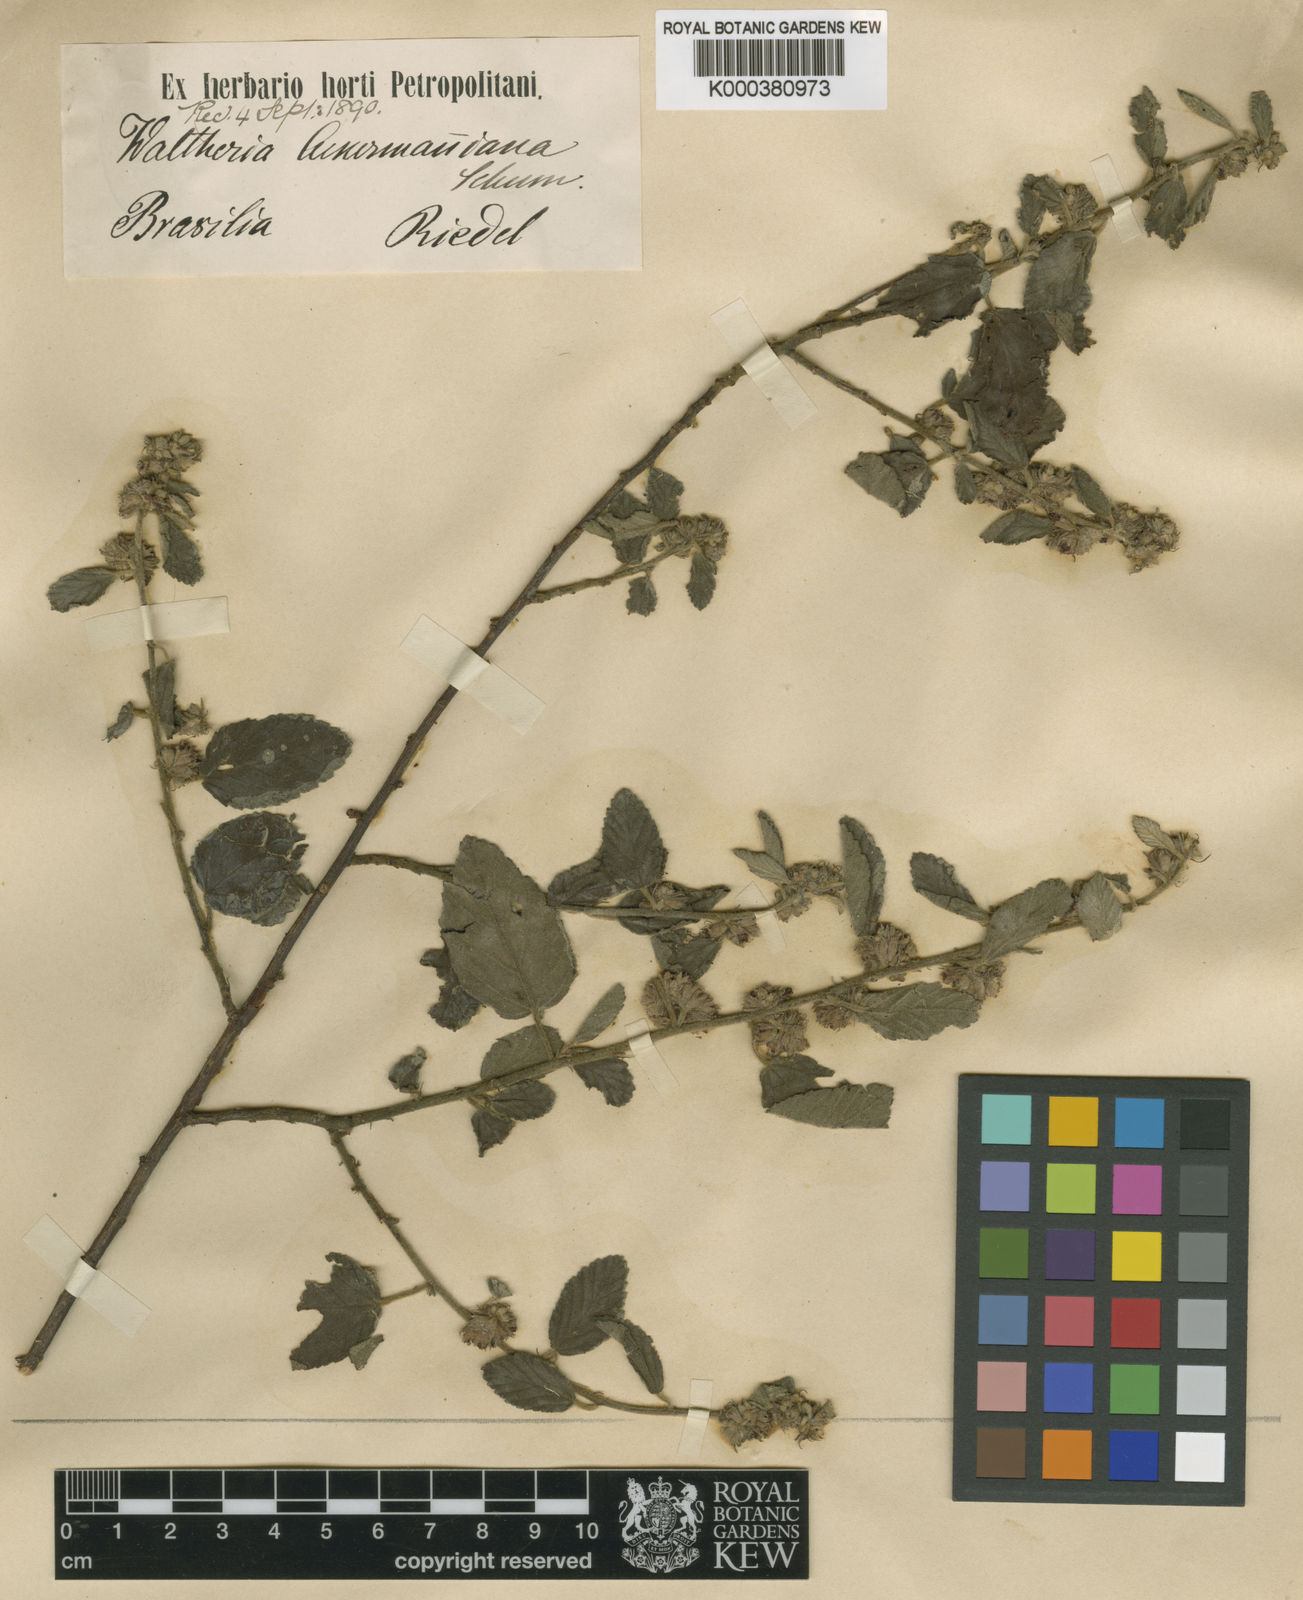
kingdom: Plantae
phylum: Tracheophyta
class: Magnoliopsida
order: Malvales
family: Malvaceae
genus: Waltheria
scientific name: Waltheria ackermanniana
